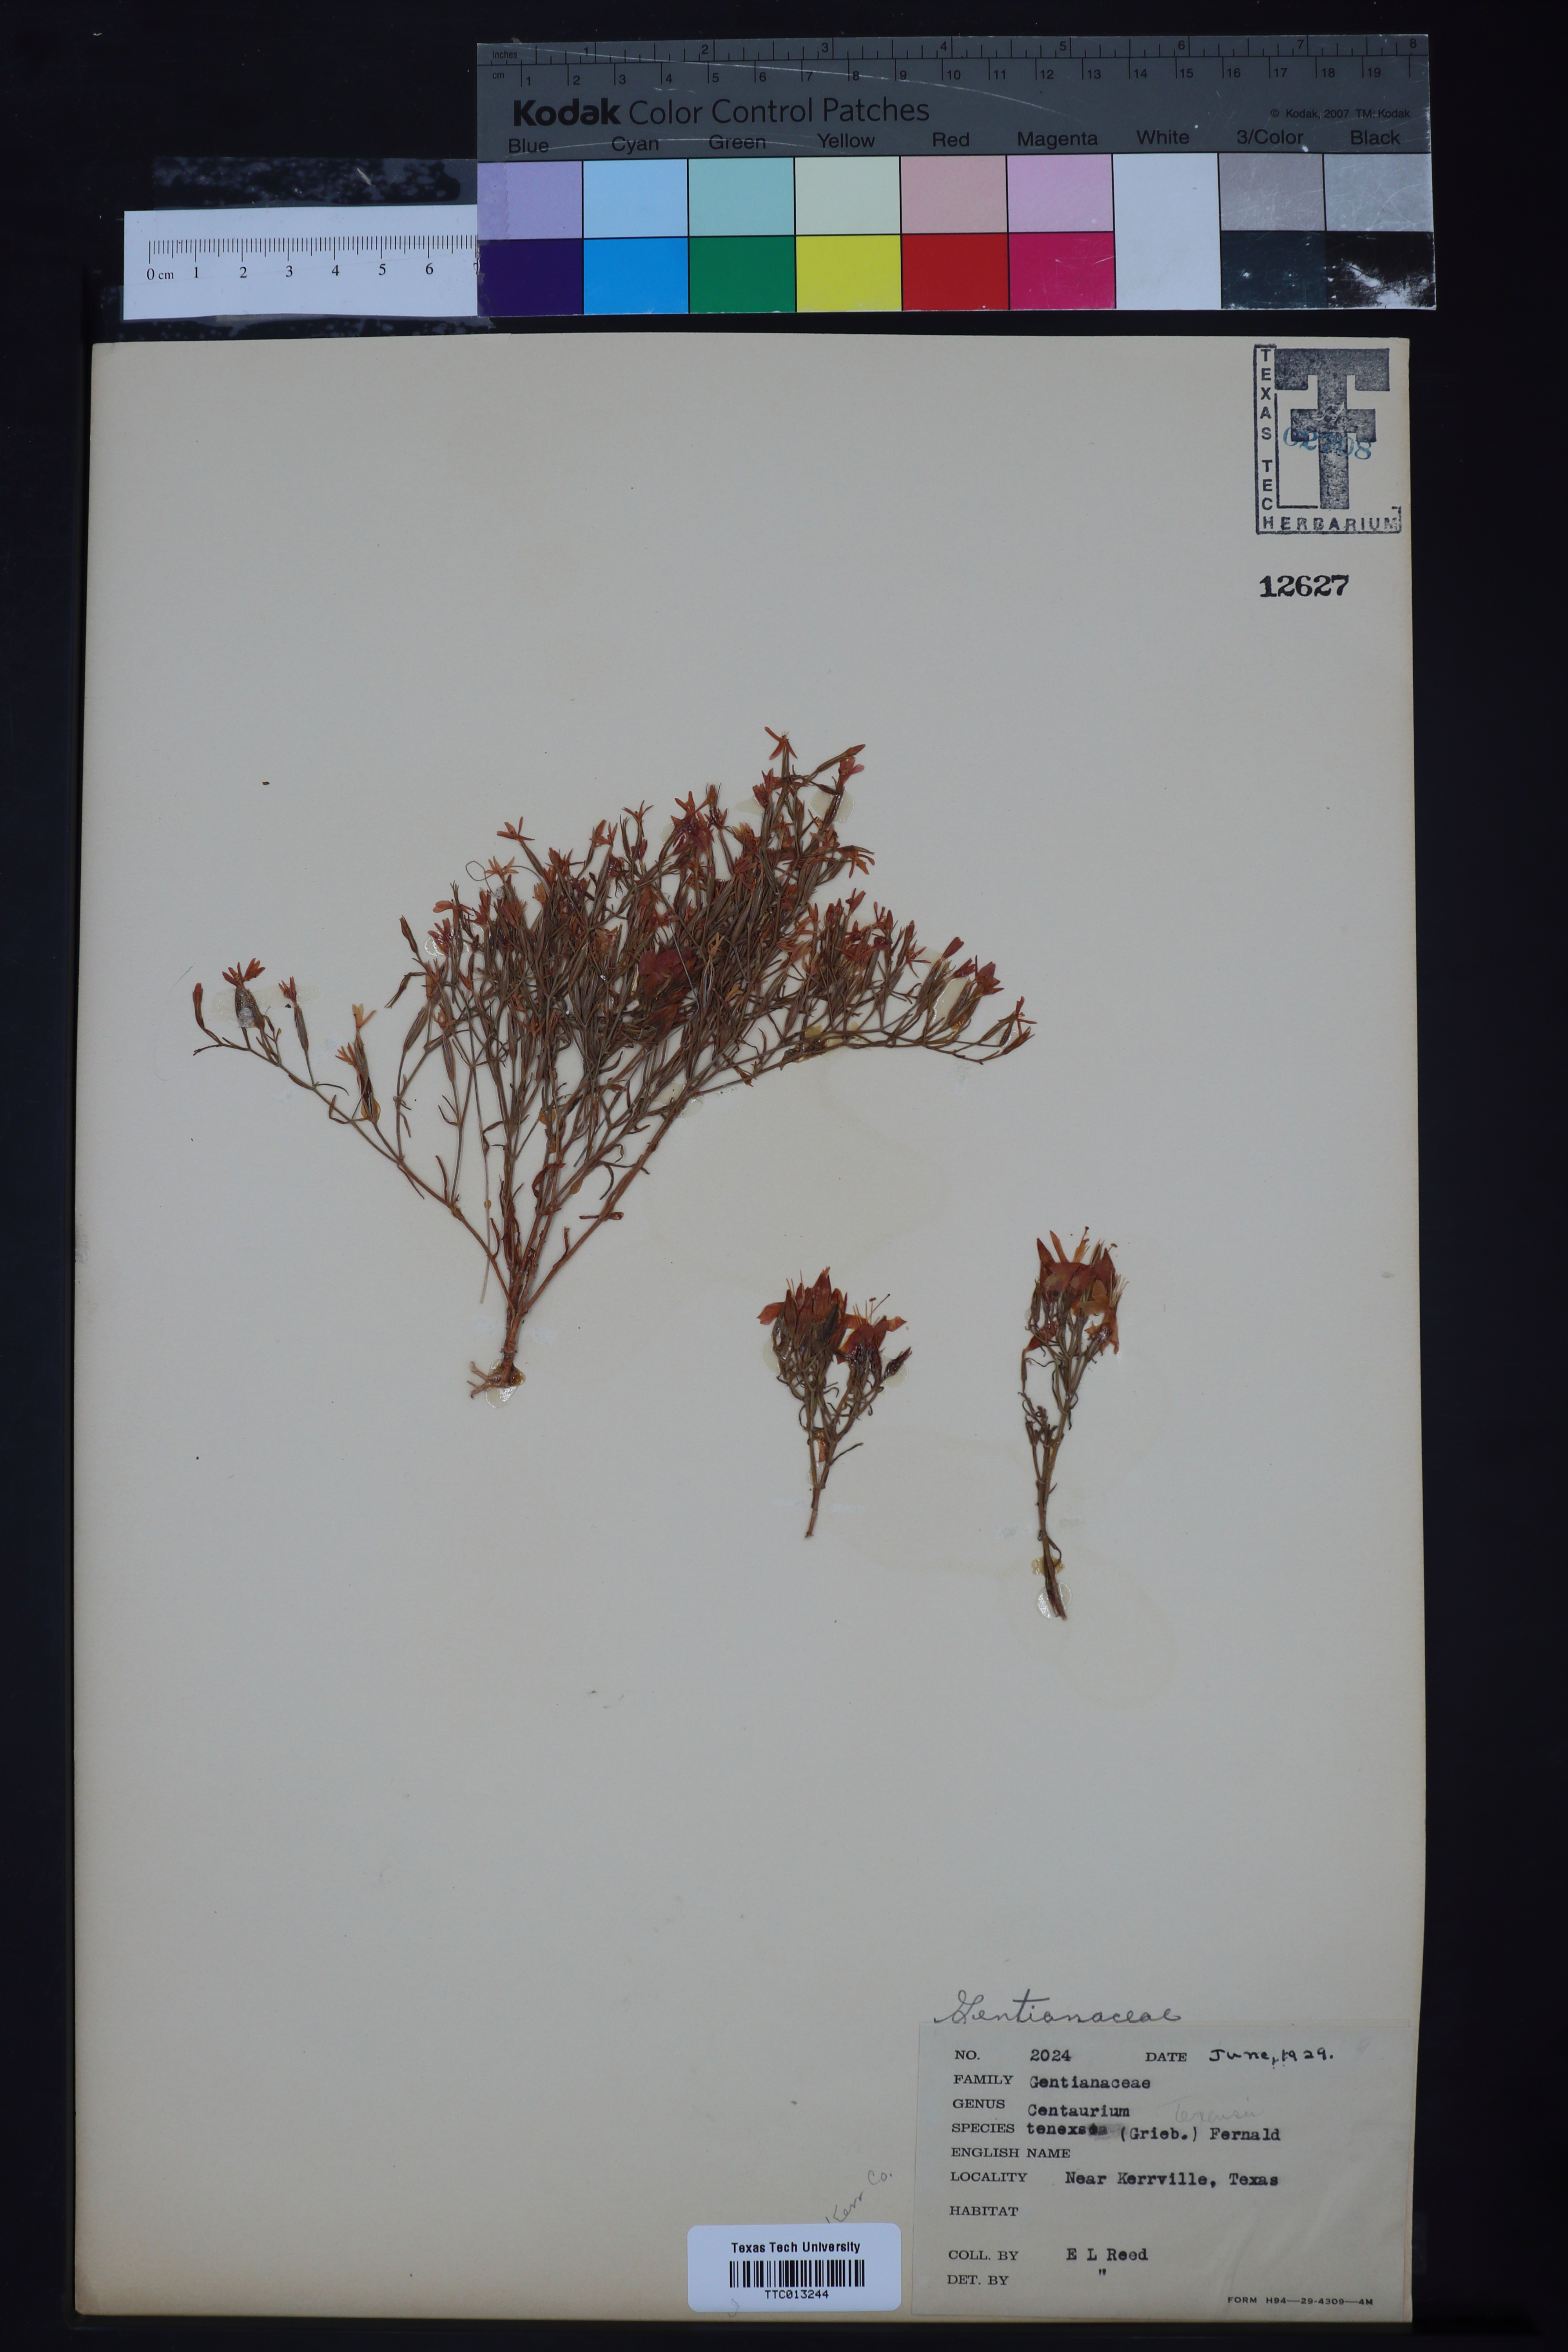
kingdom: Plantae
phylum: Tracheophyta
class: Magnoliopsida
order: Gentianales
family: Gentianaceae
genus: Zeltnera
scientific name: Zeltnera texensis
